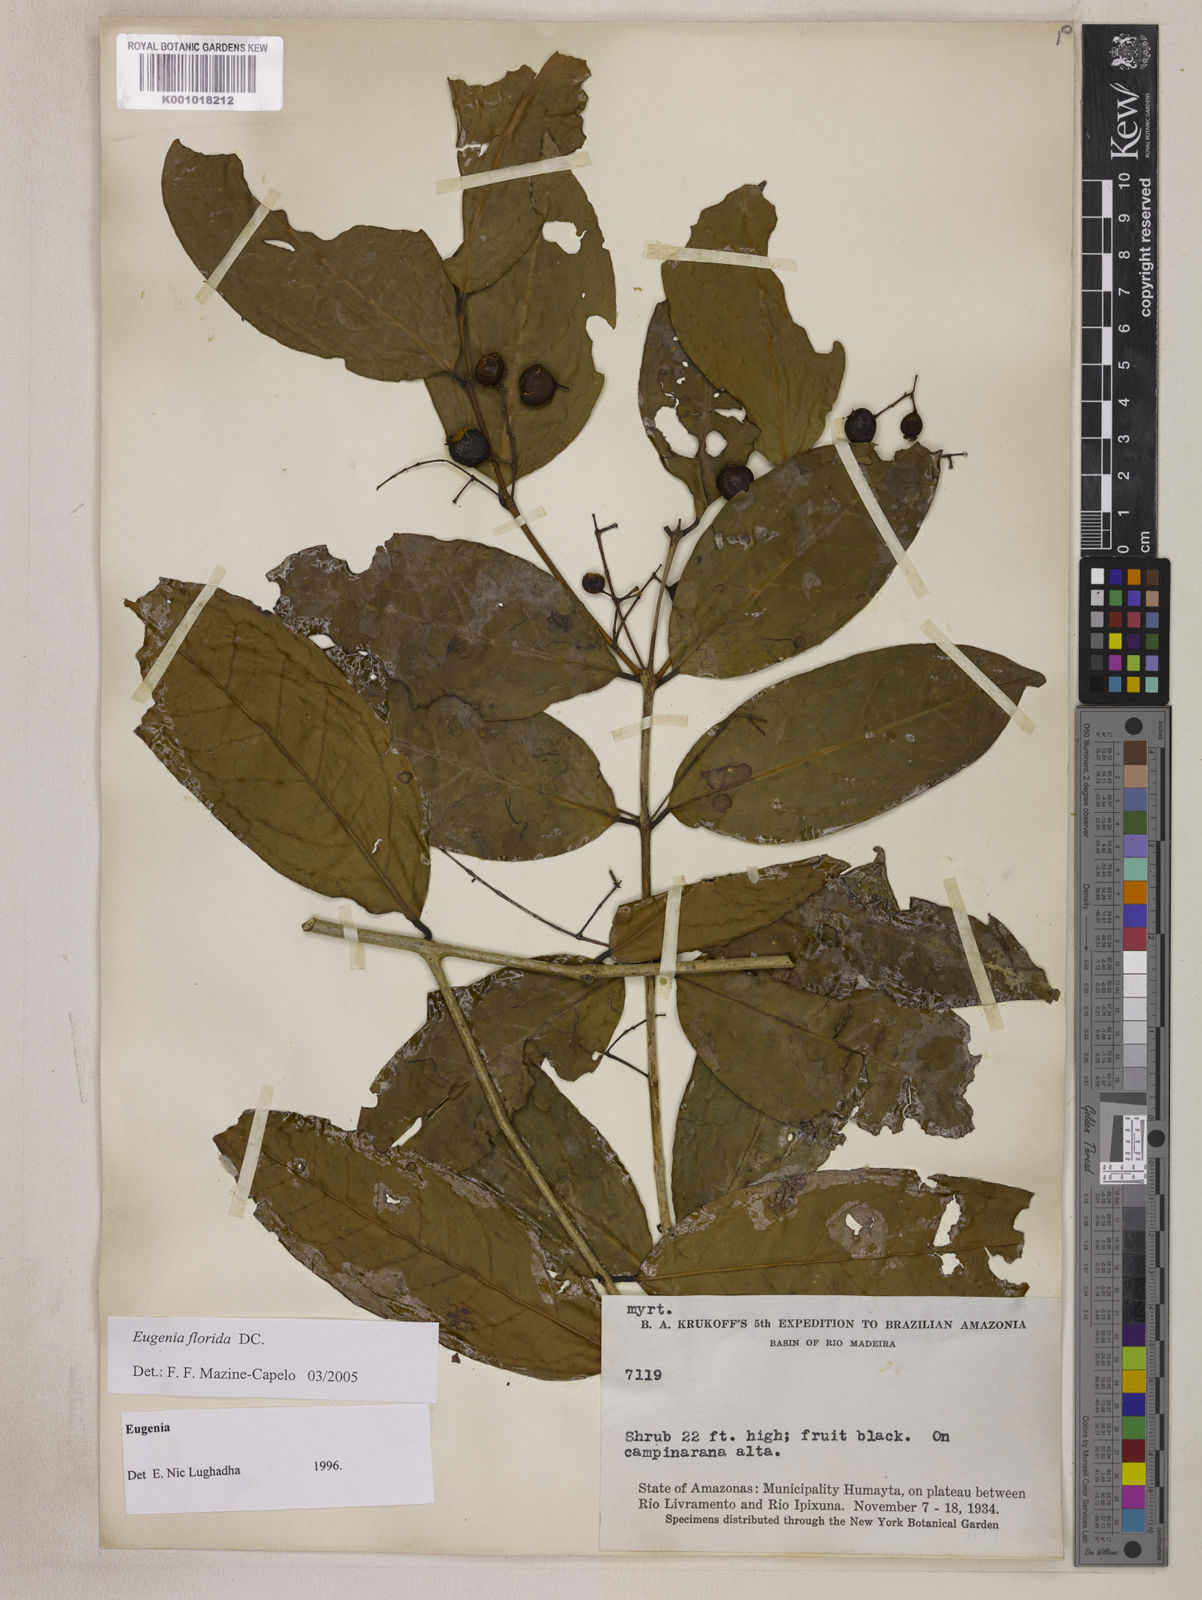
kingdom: Plantae
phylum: Tracheophyta
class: Magnoliopsida
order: Myrtales
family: Myrtaceae
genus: Eugenia
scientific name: Eugenia florida
